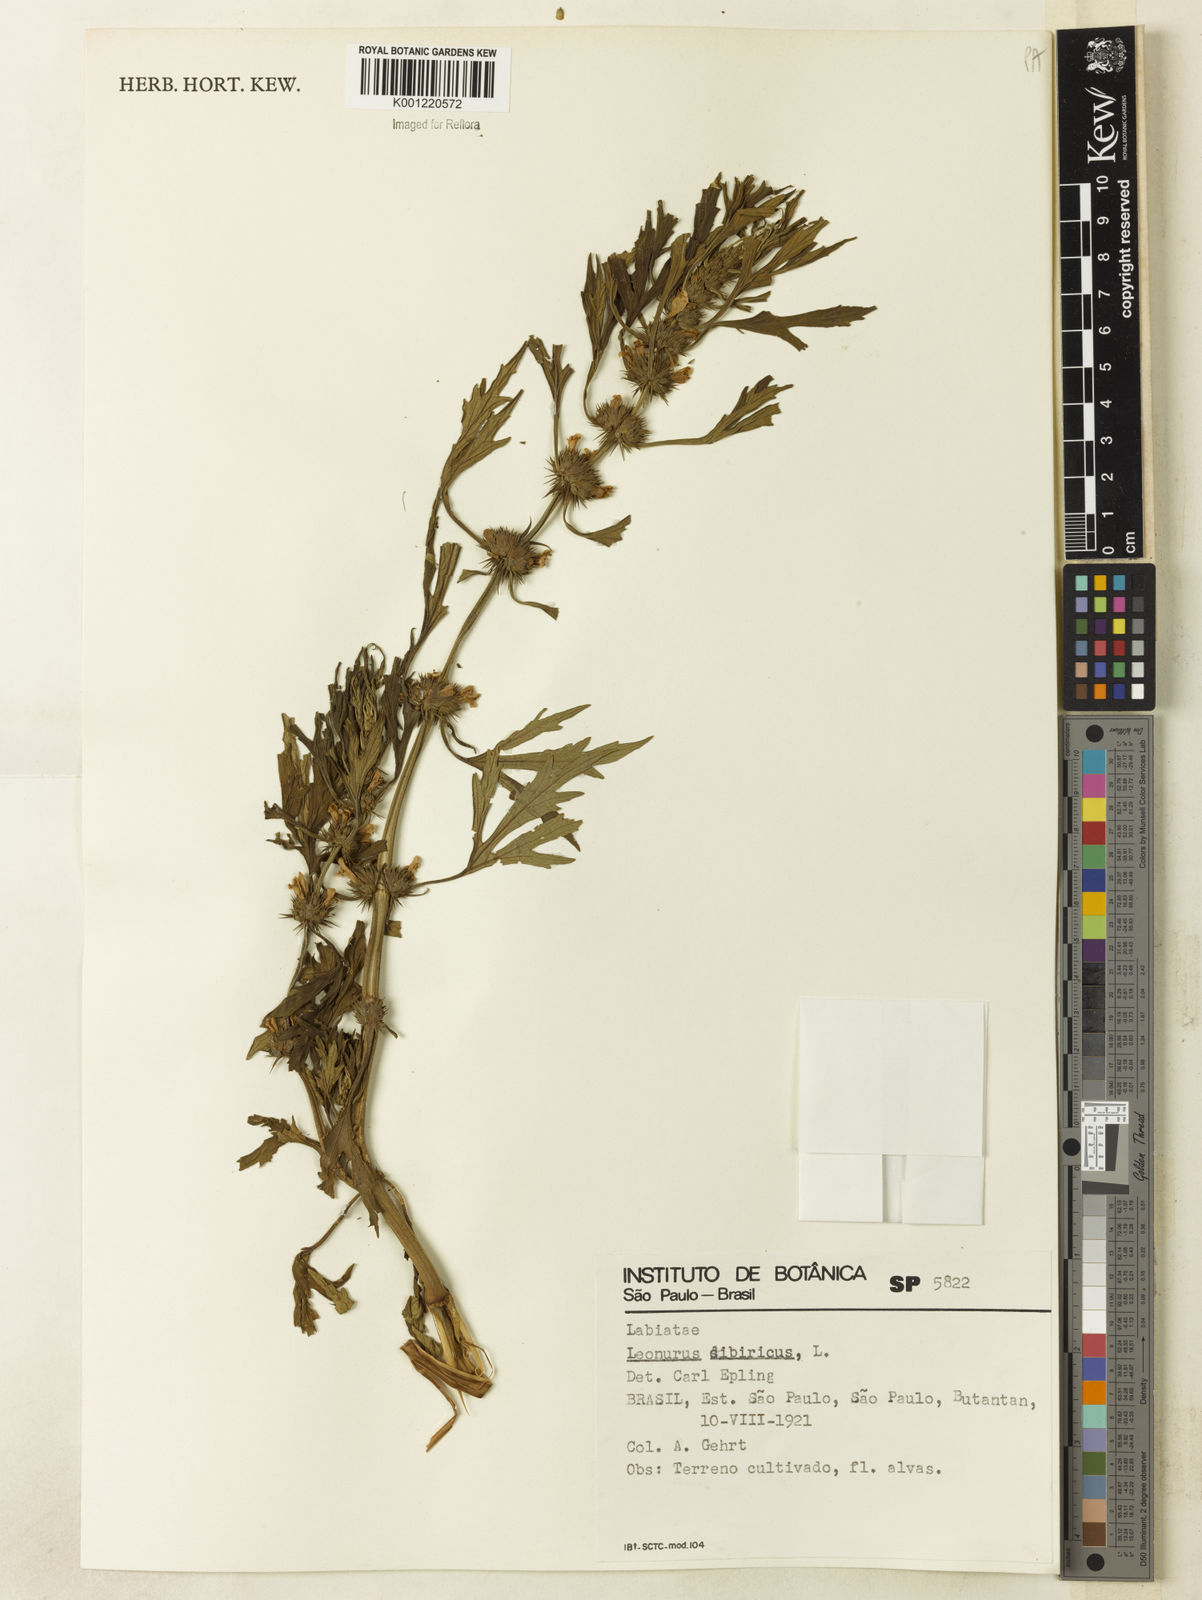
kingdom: Plantae
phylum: Tracheophyta
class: Magnoliopsida
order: Lamiales
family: Lamiaceae
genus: Leonurus
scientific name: Leonurus japonicus
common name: Honeyweed
